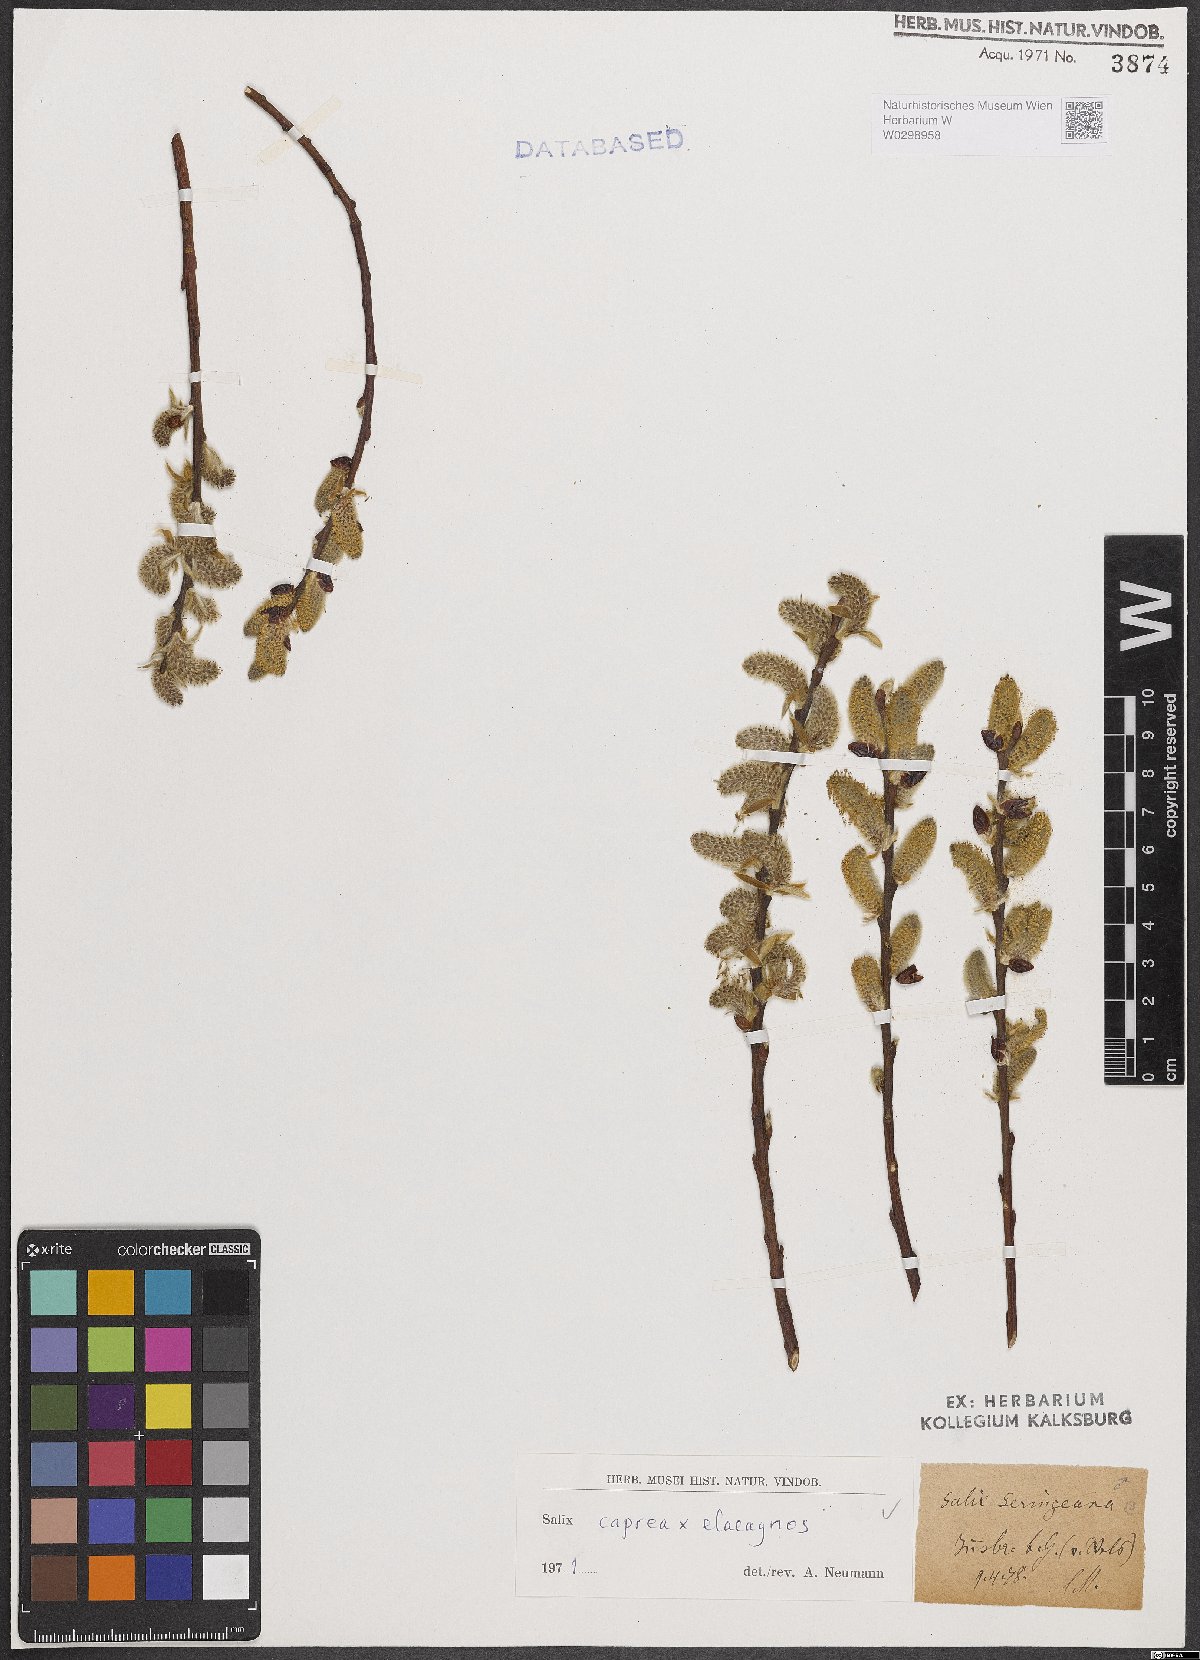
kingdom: Plantae
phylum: Tracheophyta
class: Magnoliopsida
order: Malpighiales
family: Salicaceae
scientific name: Salicaceae
